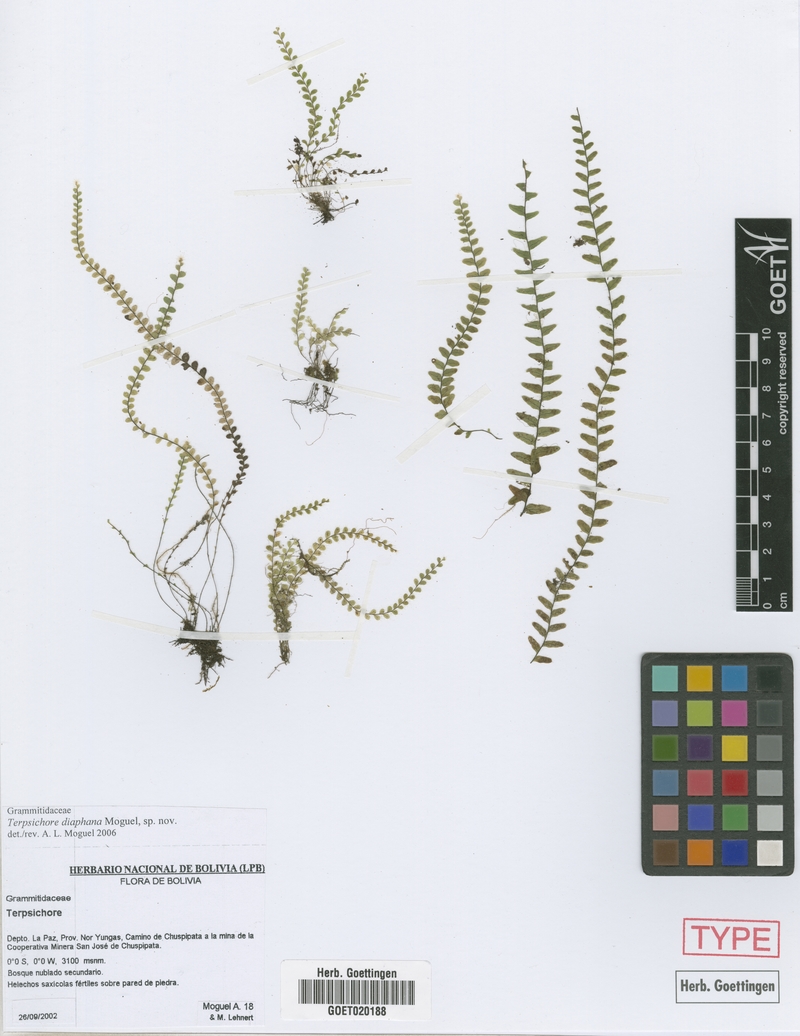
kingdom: Plantae
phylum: Tracheophyta
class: Polypodiopsida
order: Polypodiales
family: Polypodiaceae
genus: Alansmia
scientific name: Alansmia diaphana
